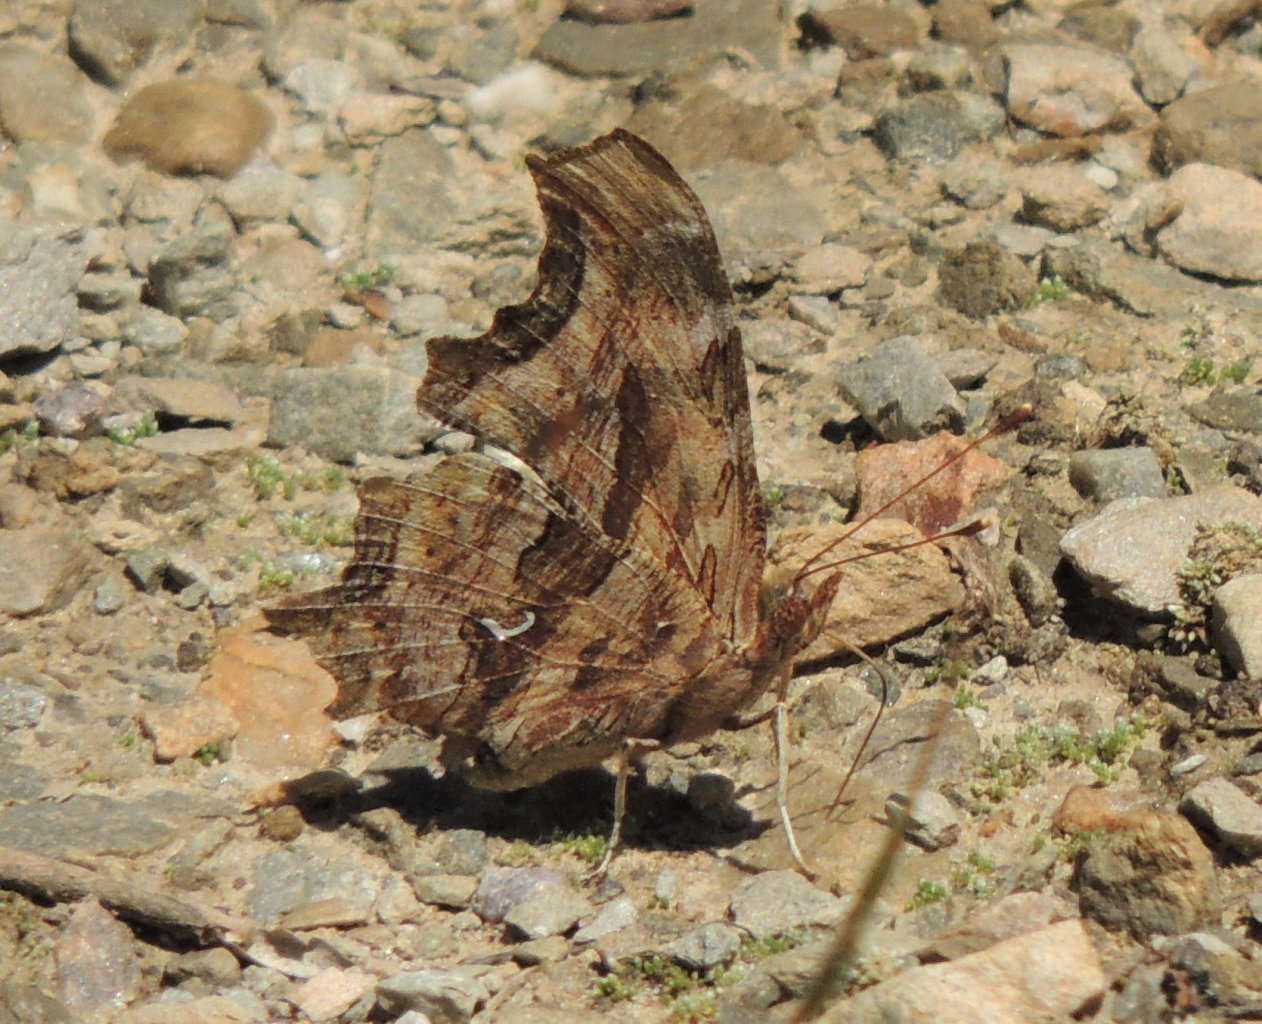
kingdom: Animalia
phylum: Arthropoda
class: Insecta
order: Lepidoptera
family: Nymphalidae
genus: Polygonia
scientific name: Polygonia satyrus
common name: Satyr Comma
